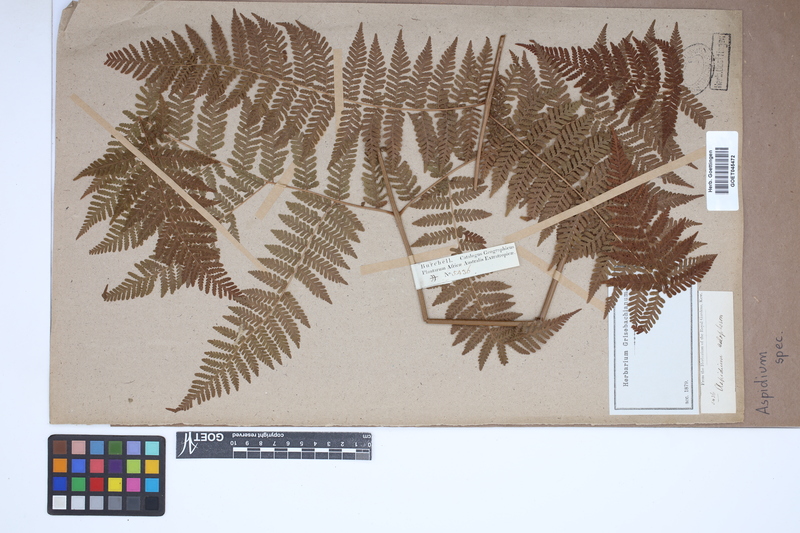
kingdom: Plantae
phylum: Tracheophyta
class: Polypodiopsida
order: Polypodiales
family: Tectariaceae
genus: Tectaria
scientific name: Tectaria Aspidium spec
